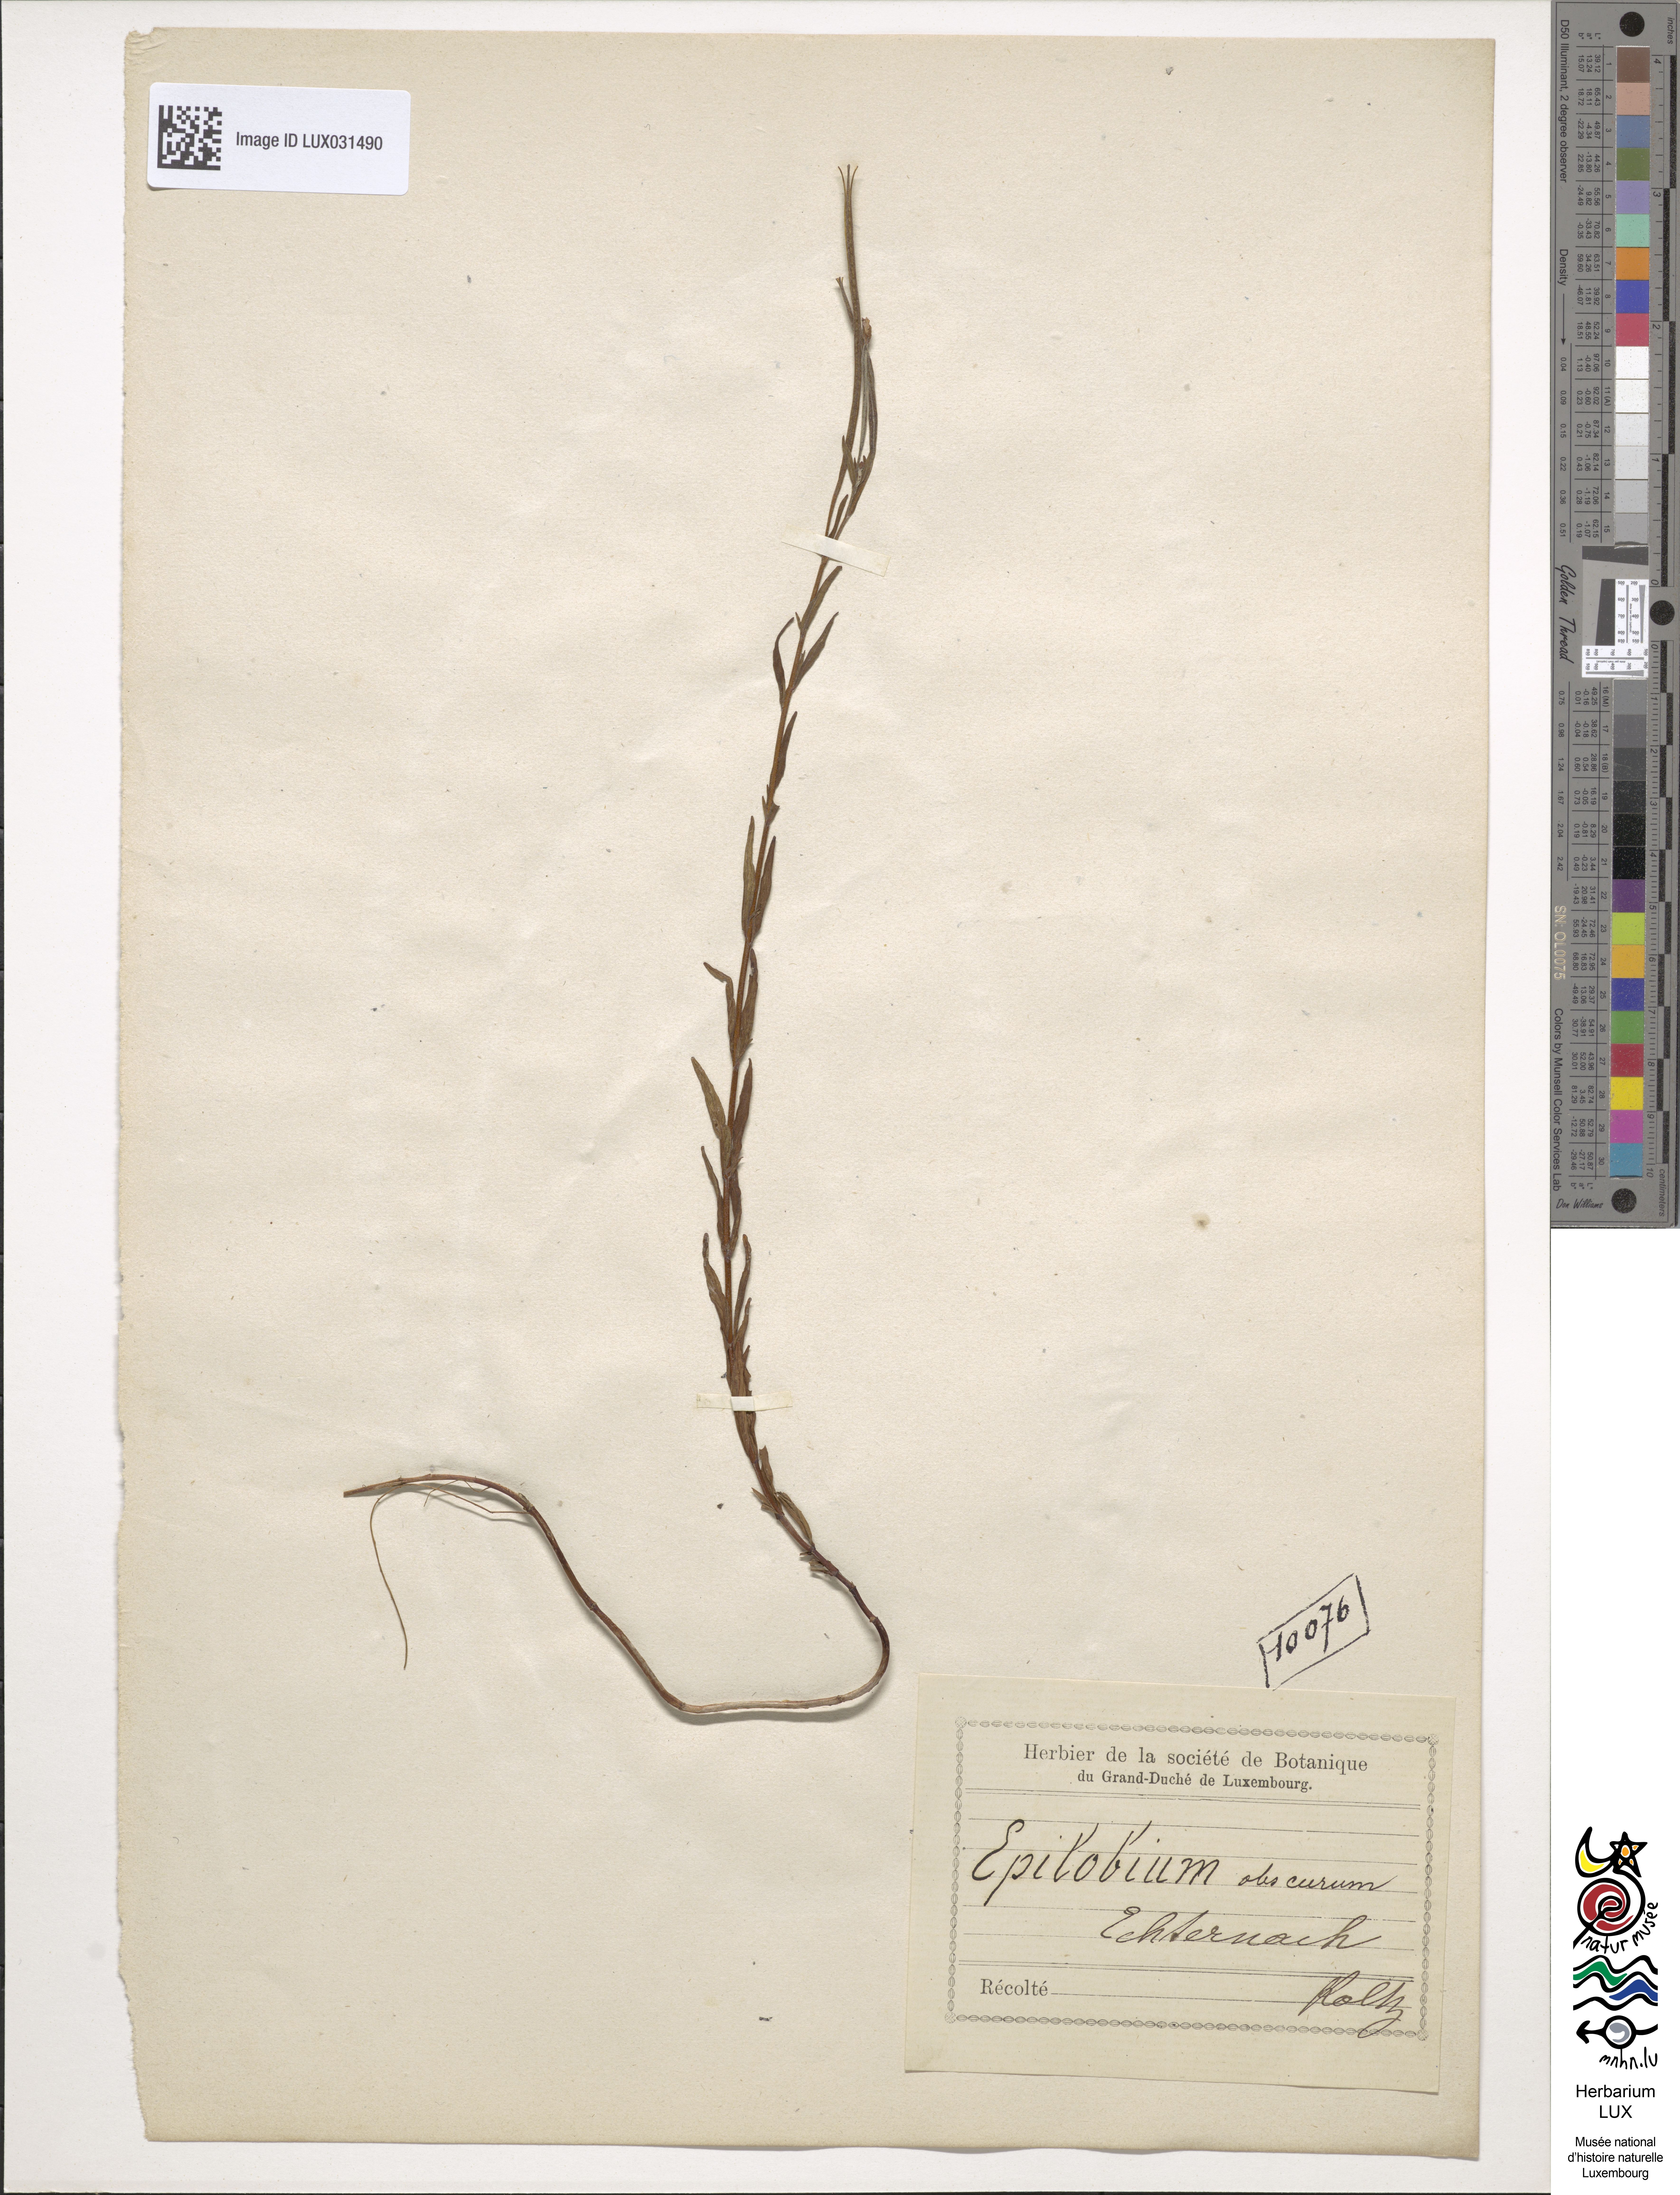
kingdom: Plantae
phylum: Tracheophyta
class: Magnoliopsida
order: Myrtales
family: Onagraceae
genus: Epilobium
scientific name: Epilobium obscurum
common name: Short-fruited willowherb
